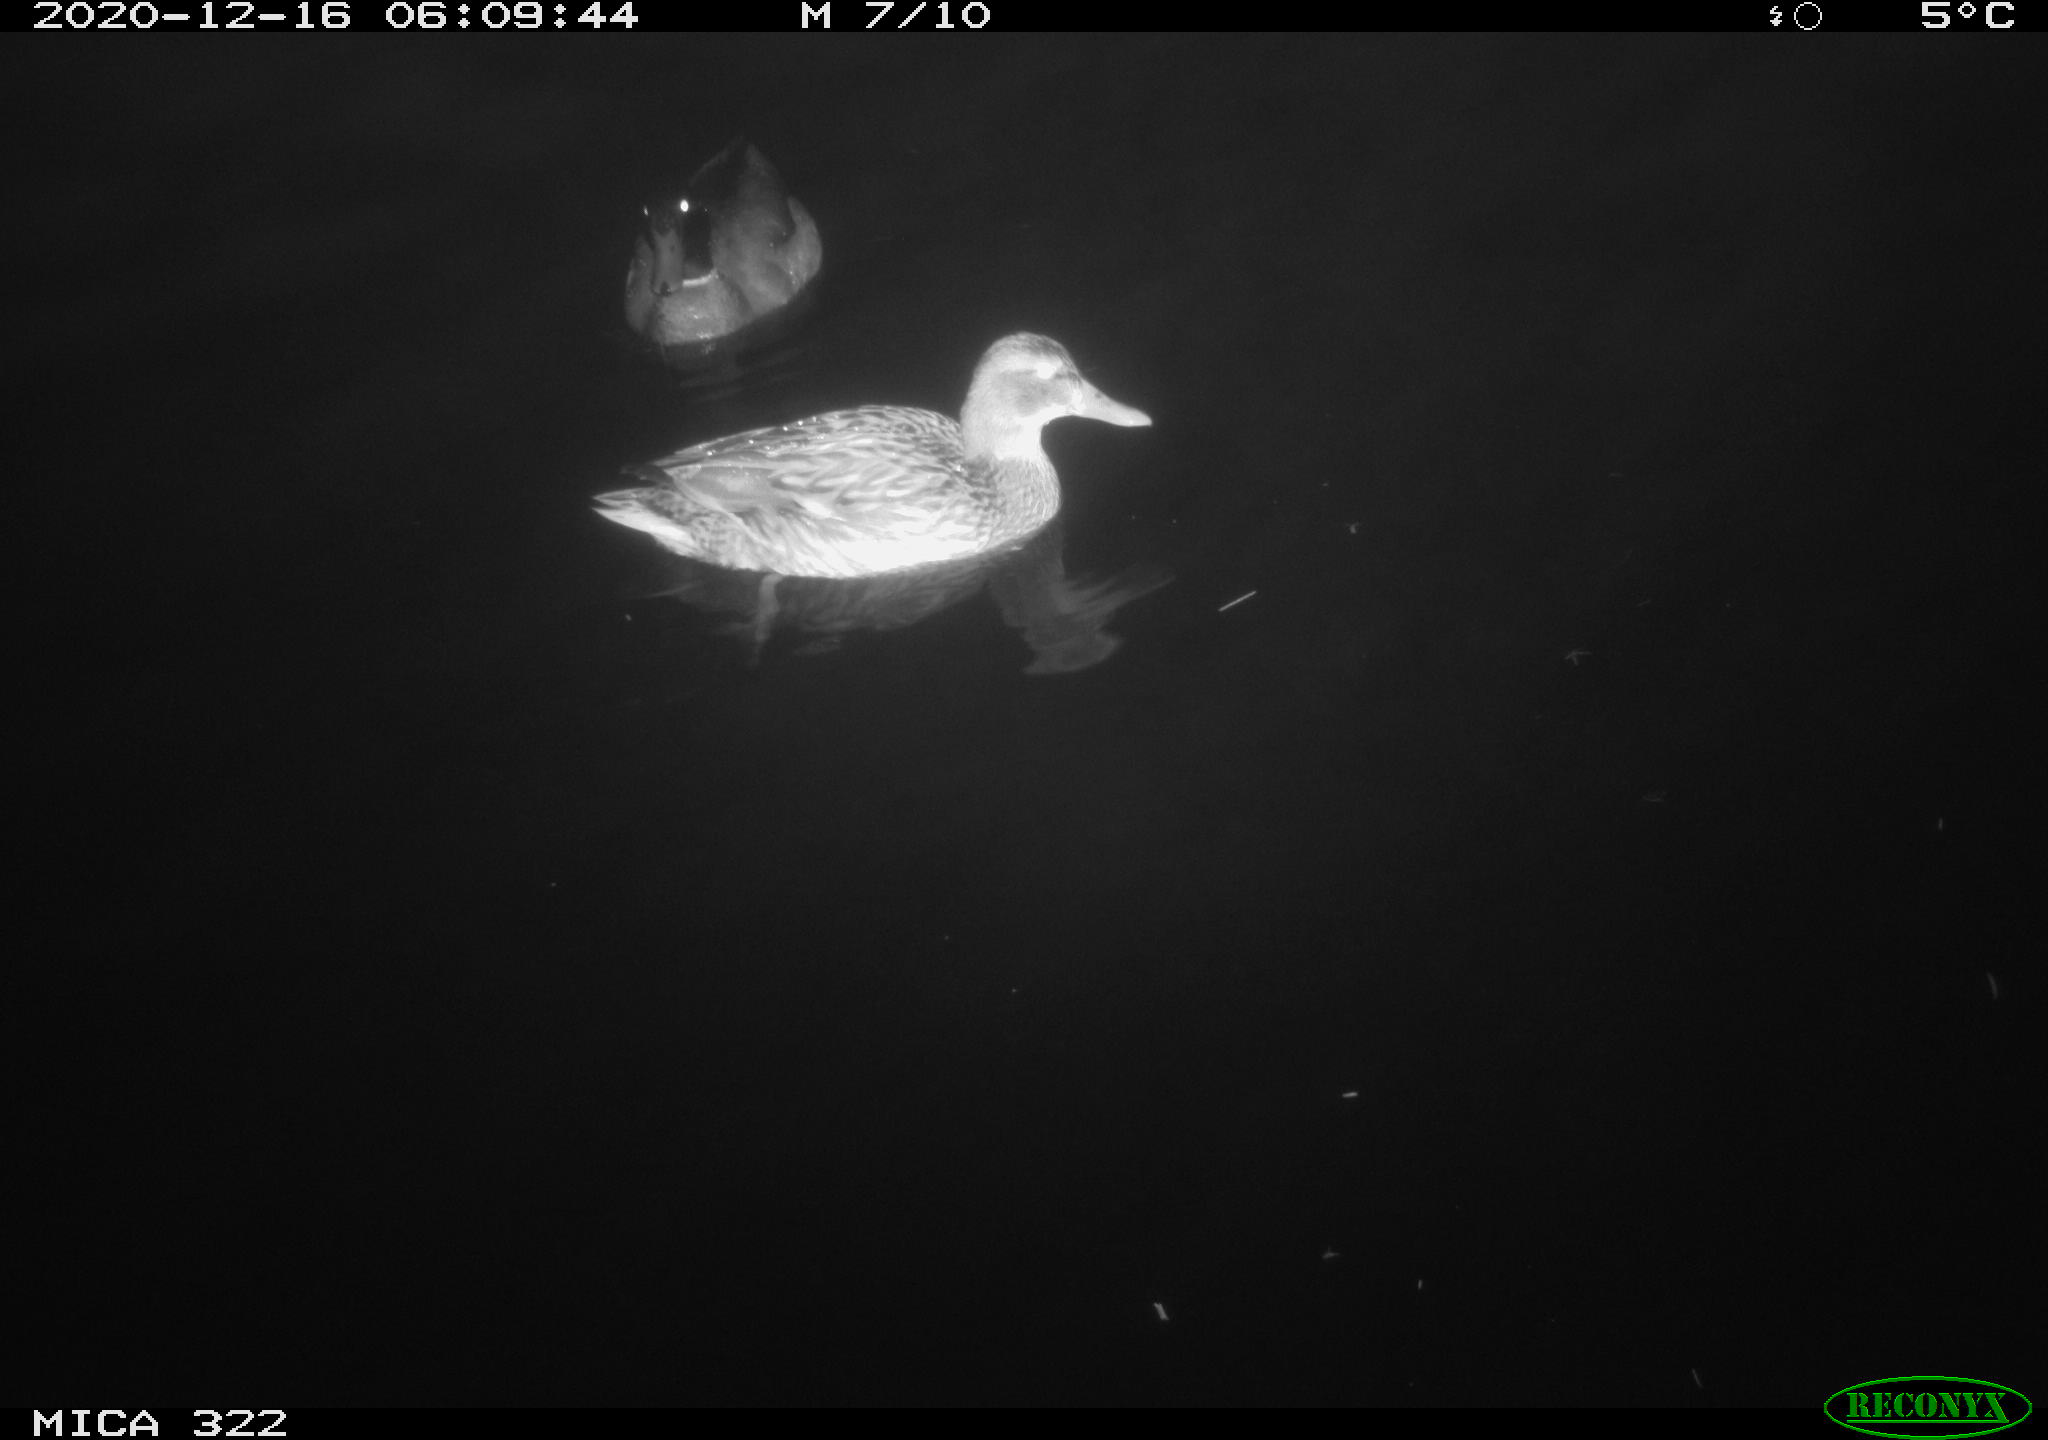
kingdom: Animalia
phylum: Chordata
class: Aves
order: Anseriformes
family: Anatidae
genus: Anas
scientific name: Anas platyrhynchos
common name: Mallard
